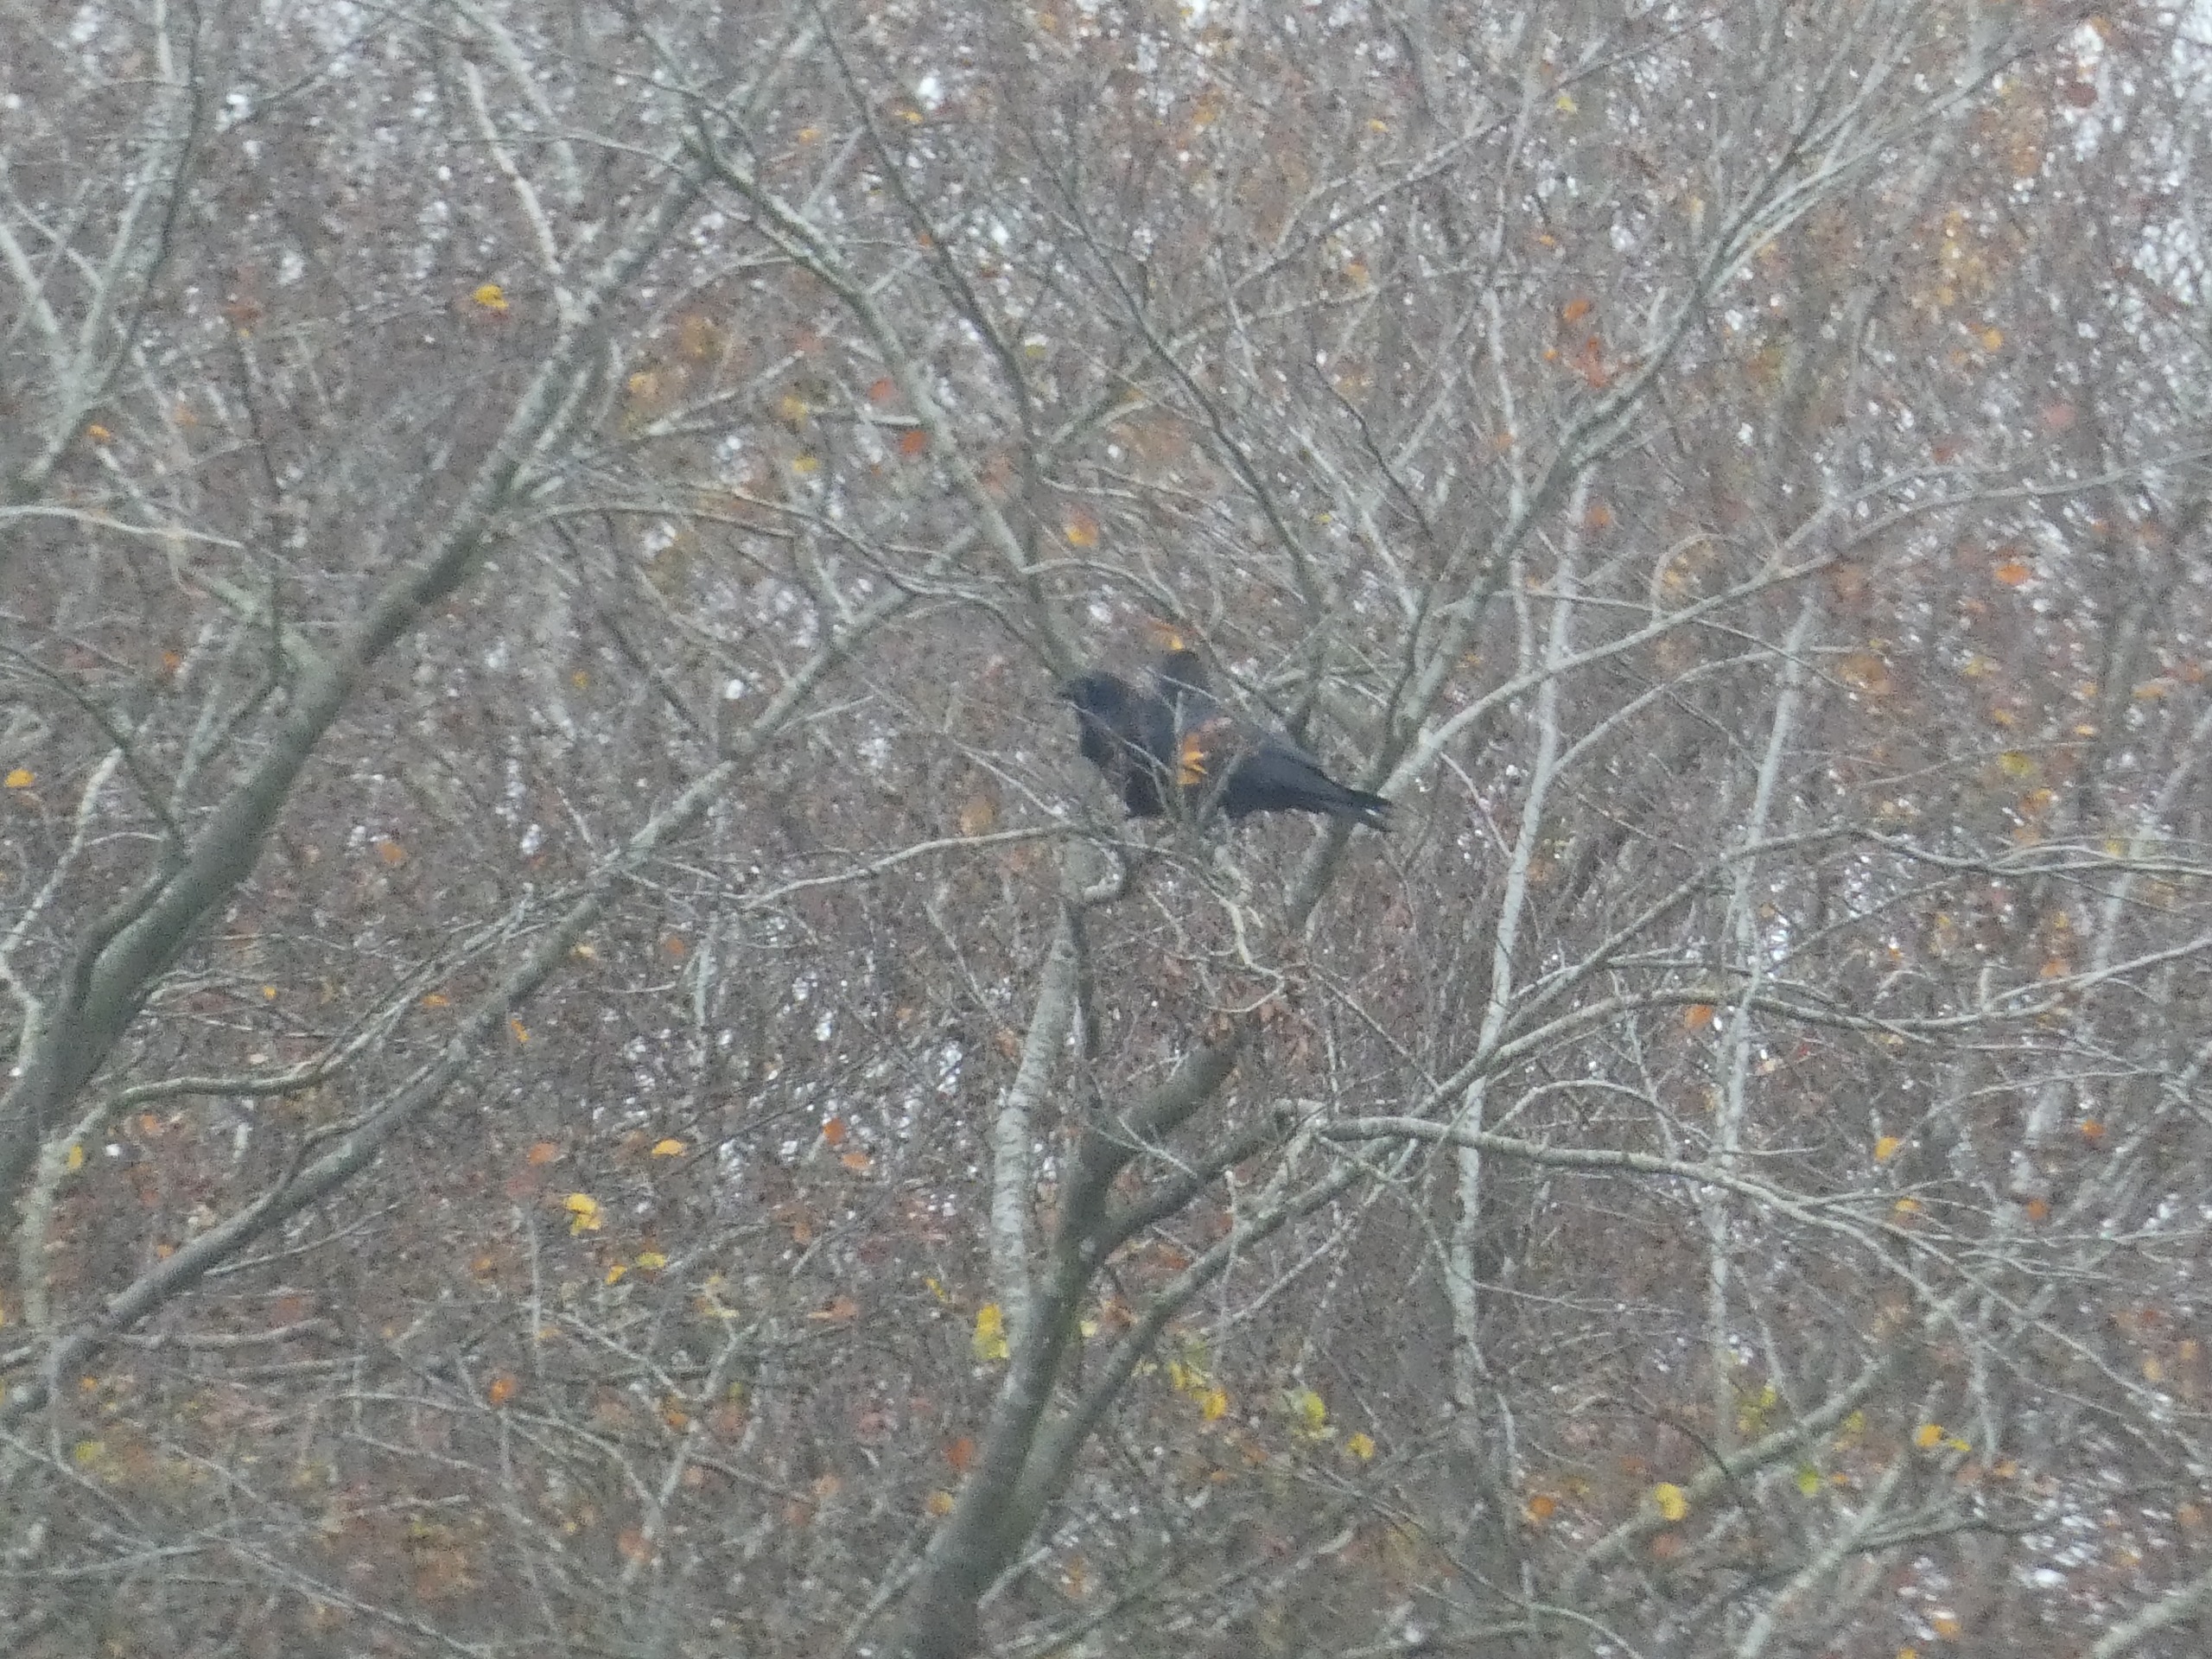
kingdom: Animalia
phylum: Chordata
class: Aves
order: Passeriformes
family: Corvidae
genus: Corvus
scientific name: Corvus corax
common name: Ravn
